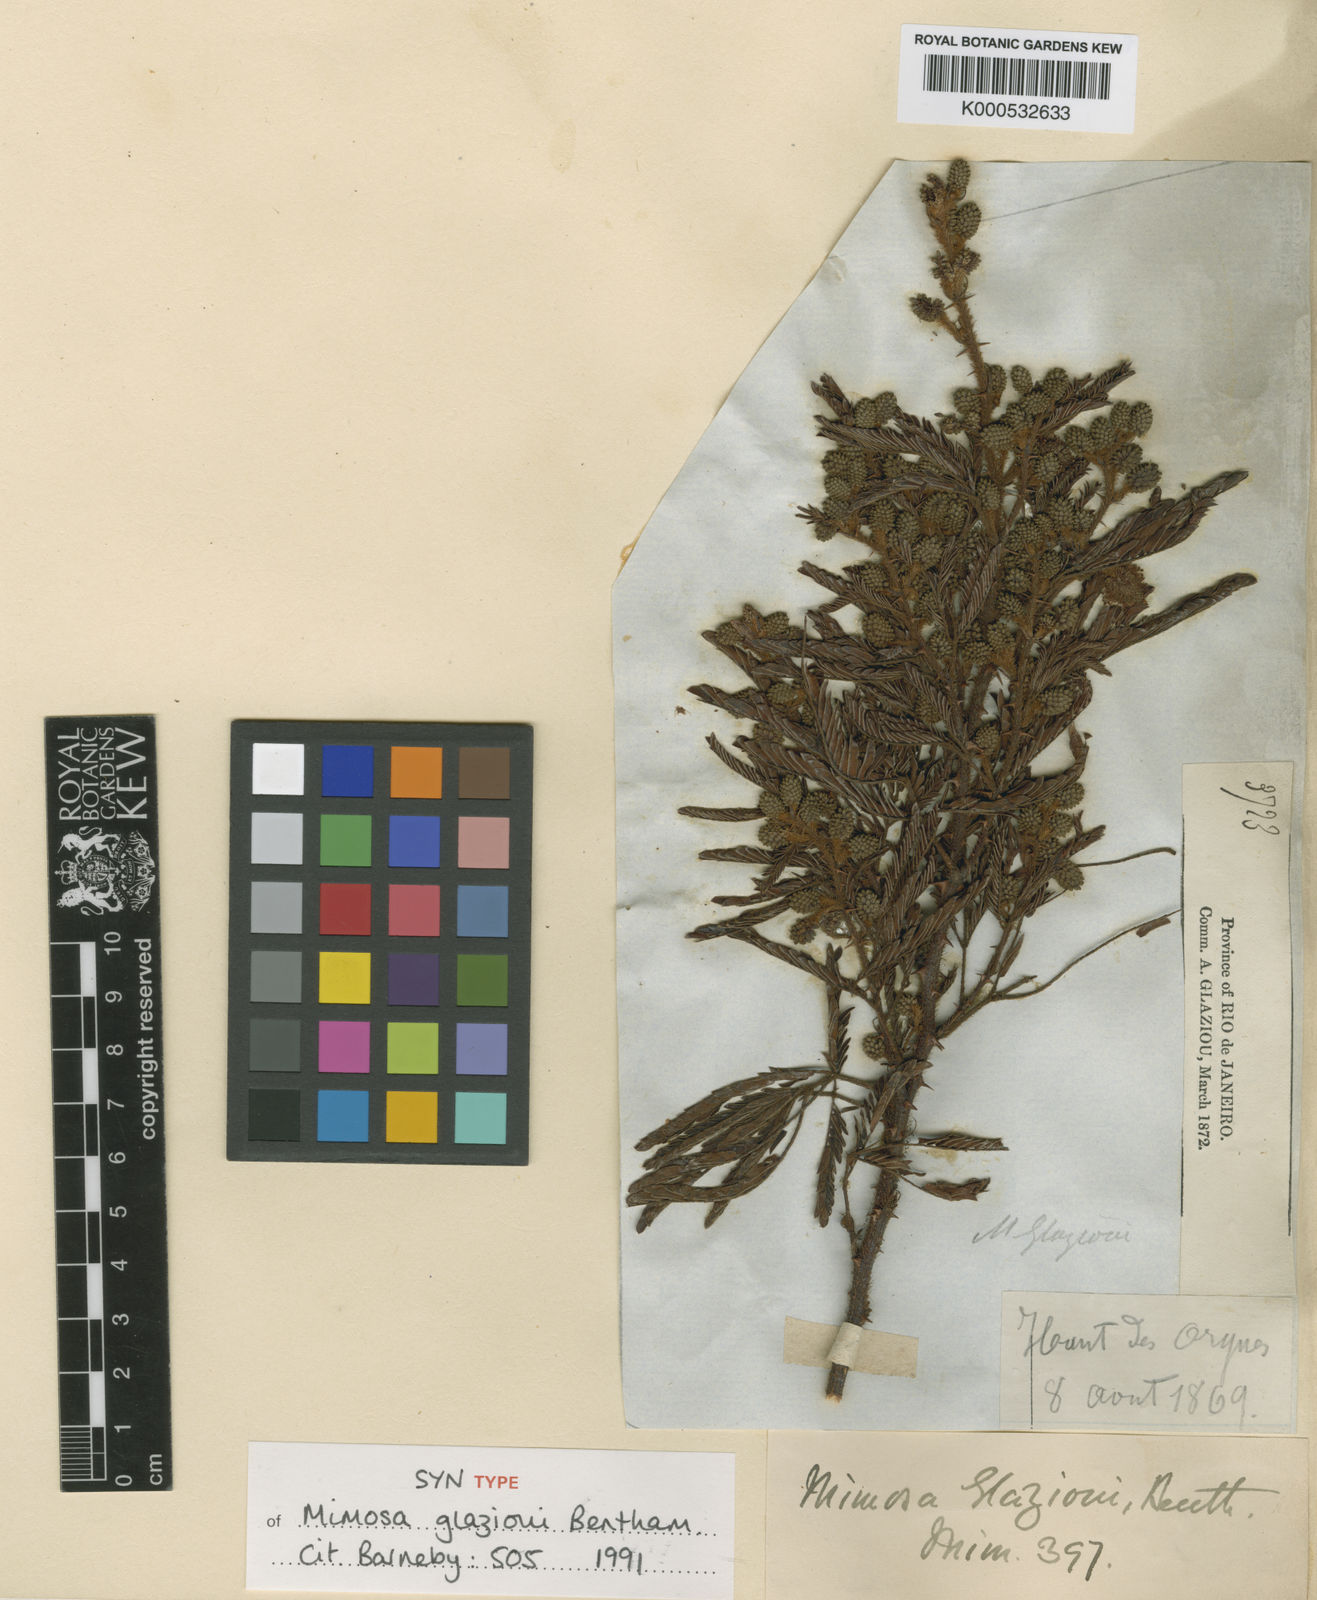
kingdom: Plantae
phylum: Tracheophyta
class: Magnoliopsida
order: Fabales
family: Fabaceae
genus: Mimosa
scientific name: Mimosa
